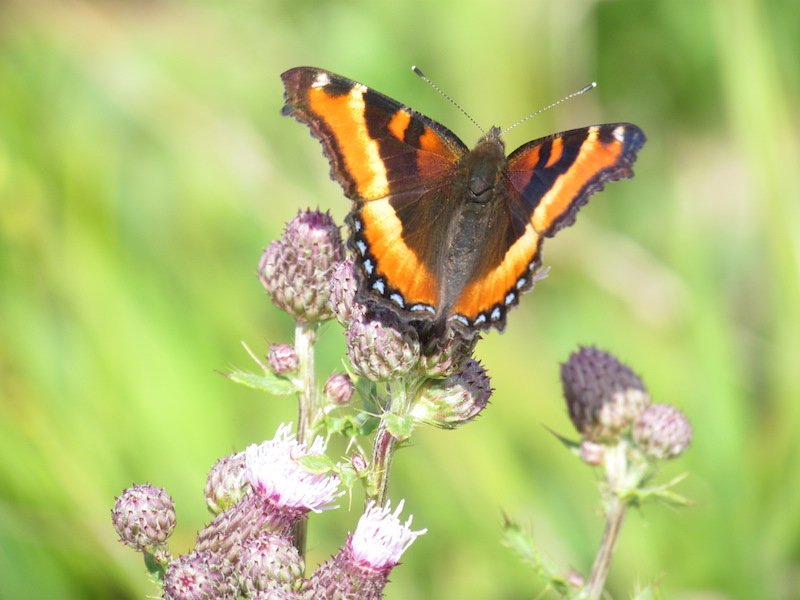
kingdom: Animalia
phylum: Arthropoda
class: Insecta
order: Lepidoptera
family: Nymphalidae
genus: Aglais
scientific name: Aglais milberti
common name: Milbert's Tortoiseshell
